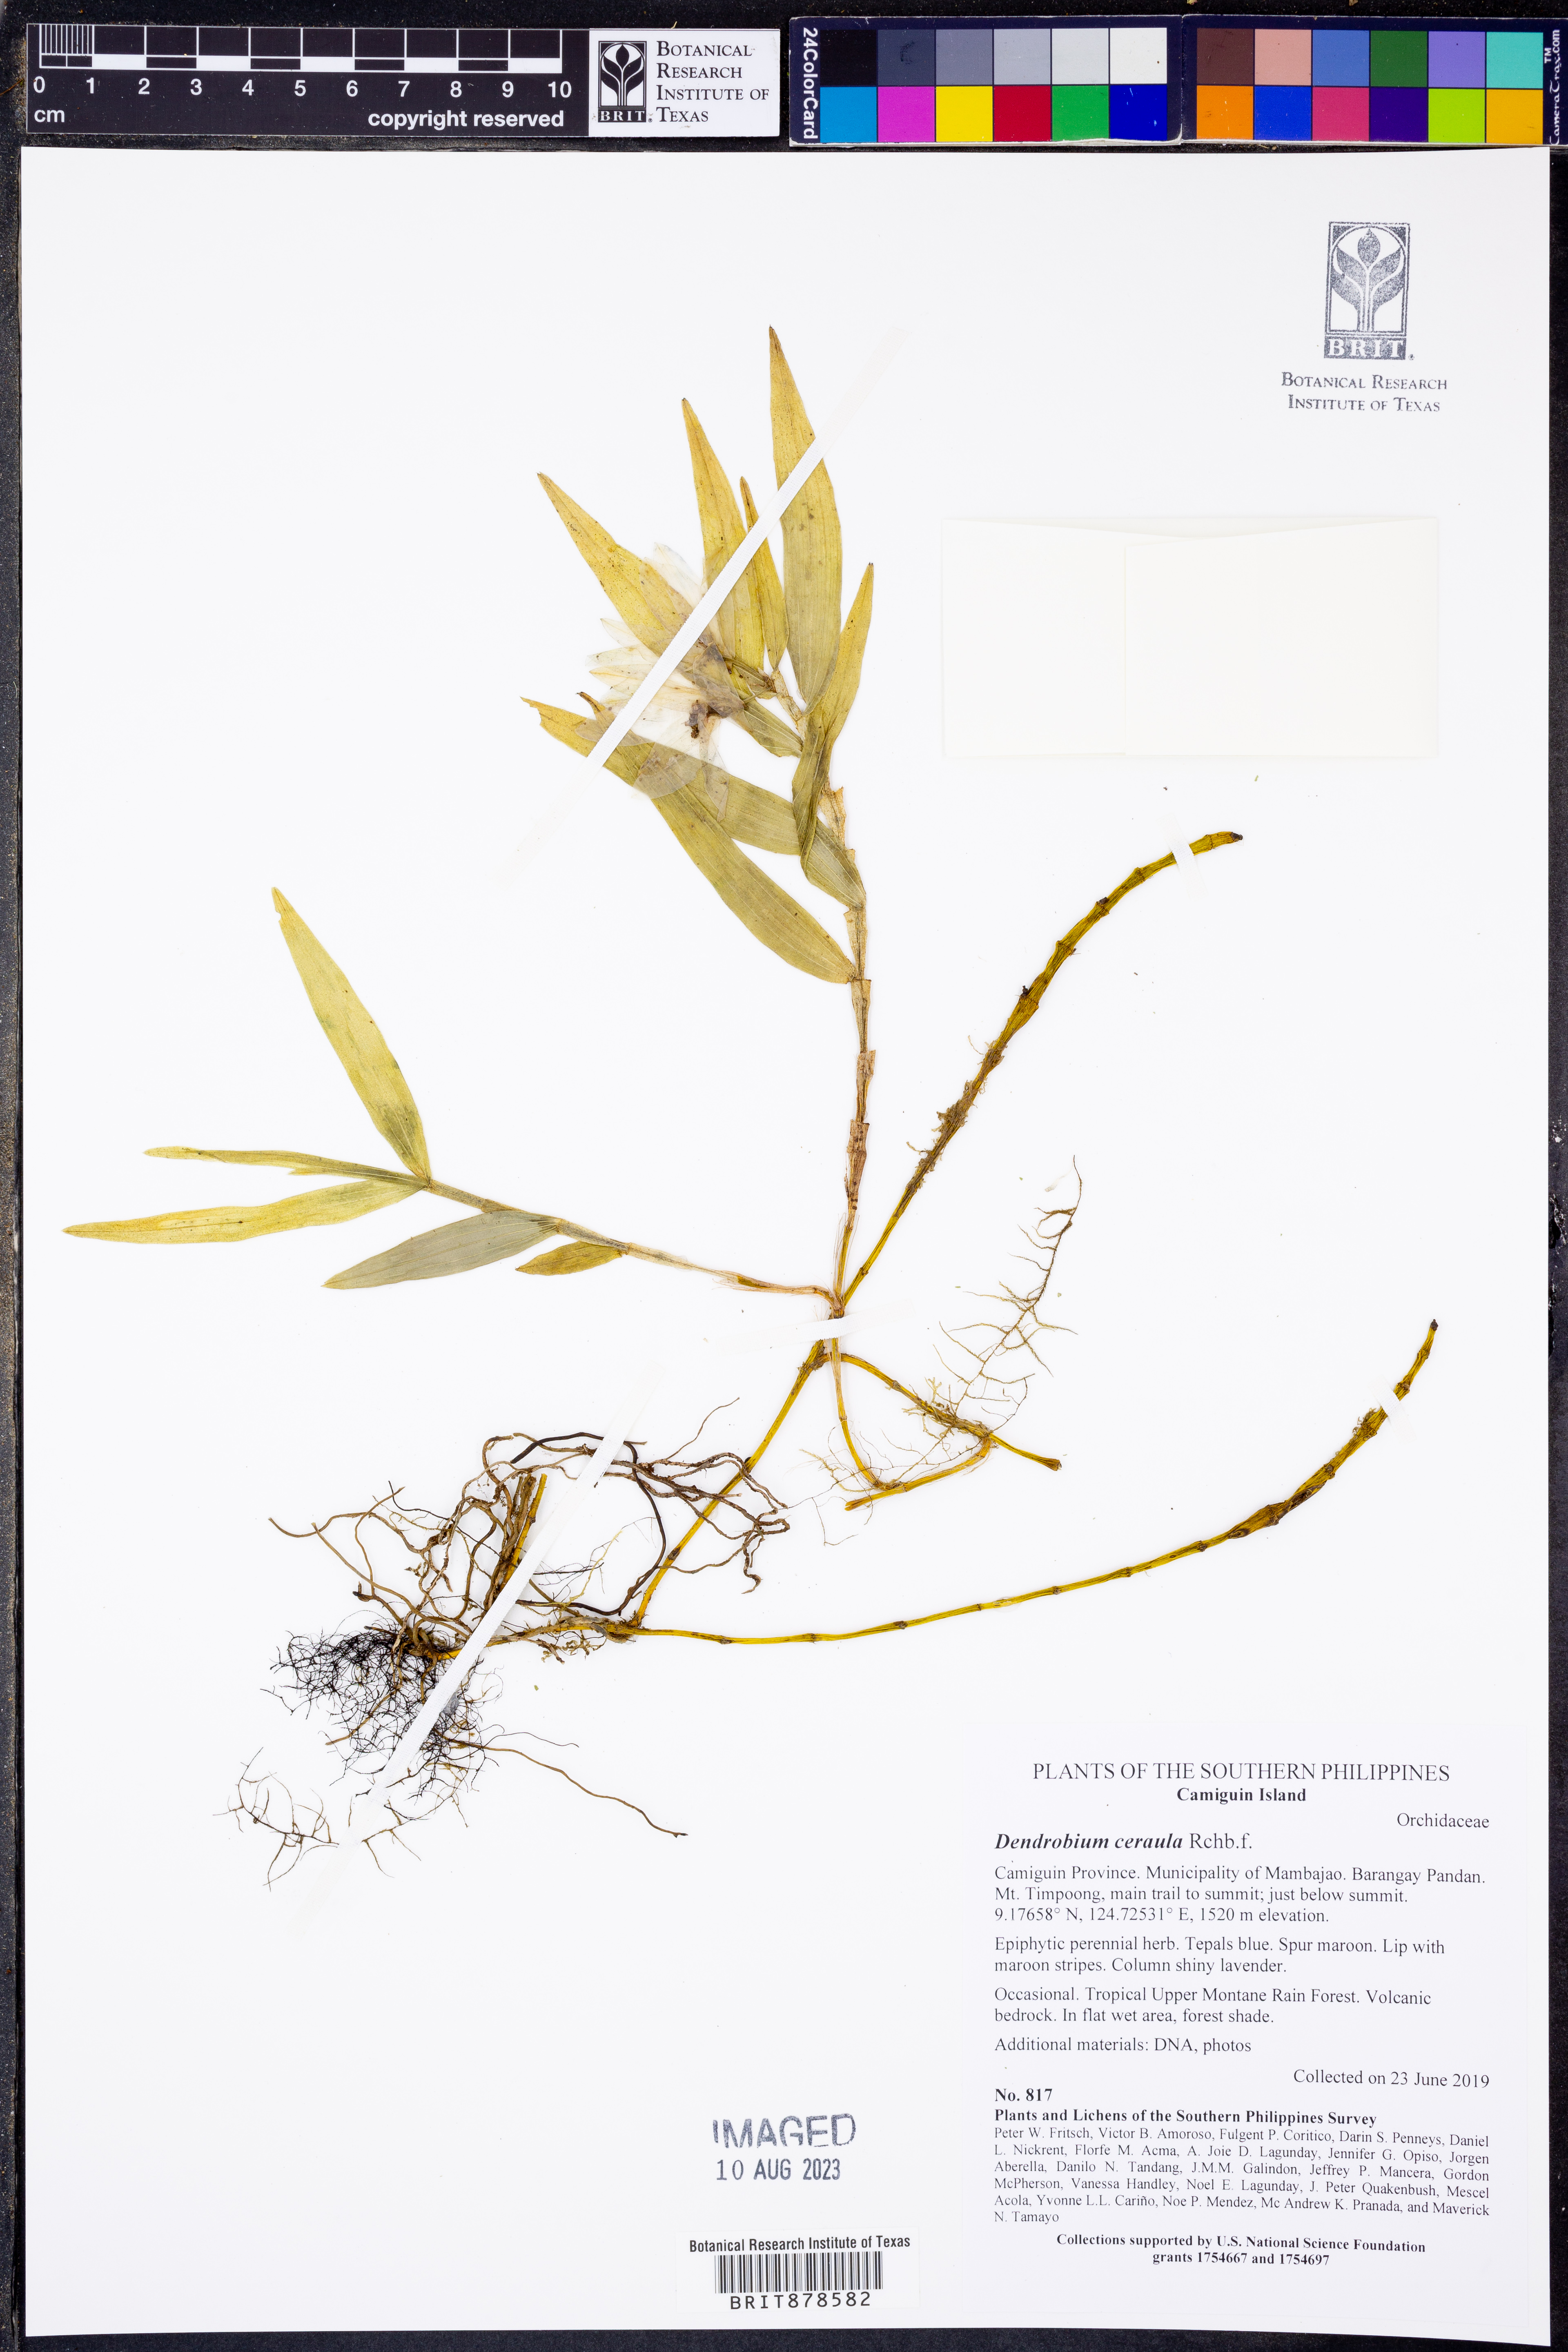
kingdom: Plantae
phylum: Tracheophyta
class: Liliopsida
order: Asparagales
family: Orchidaceae
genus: Dendrobium
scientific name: Dendrobium ceraula
